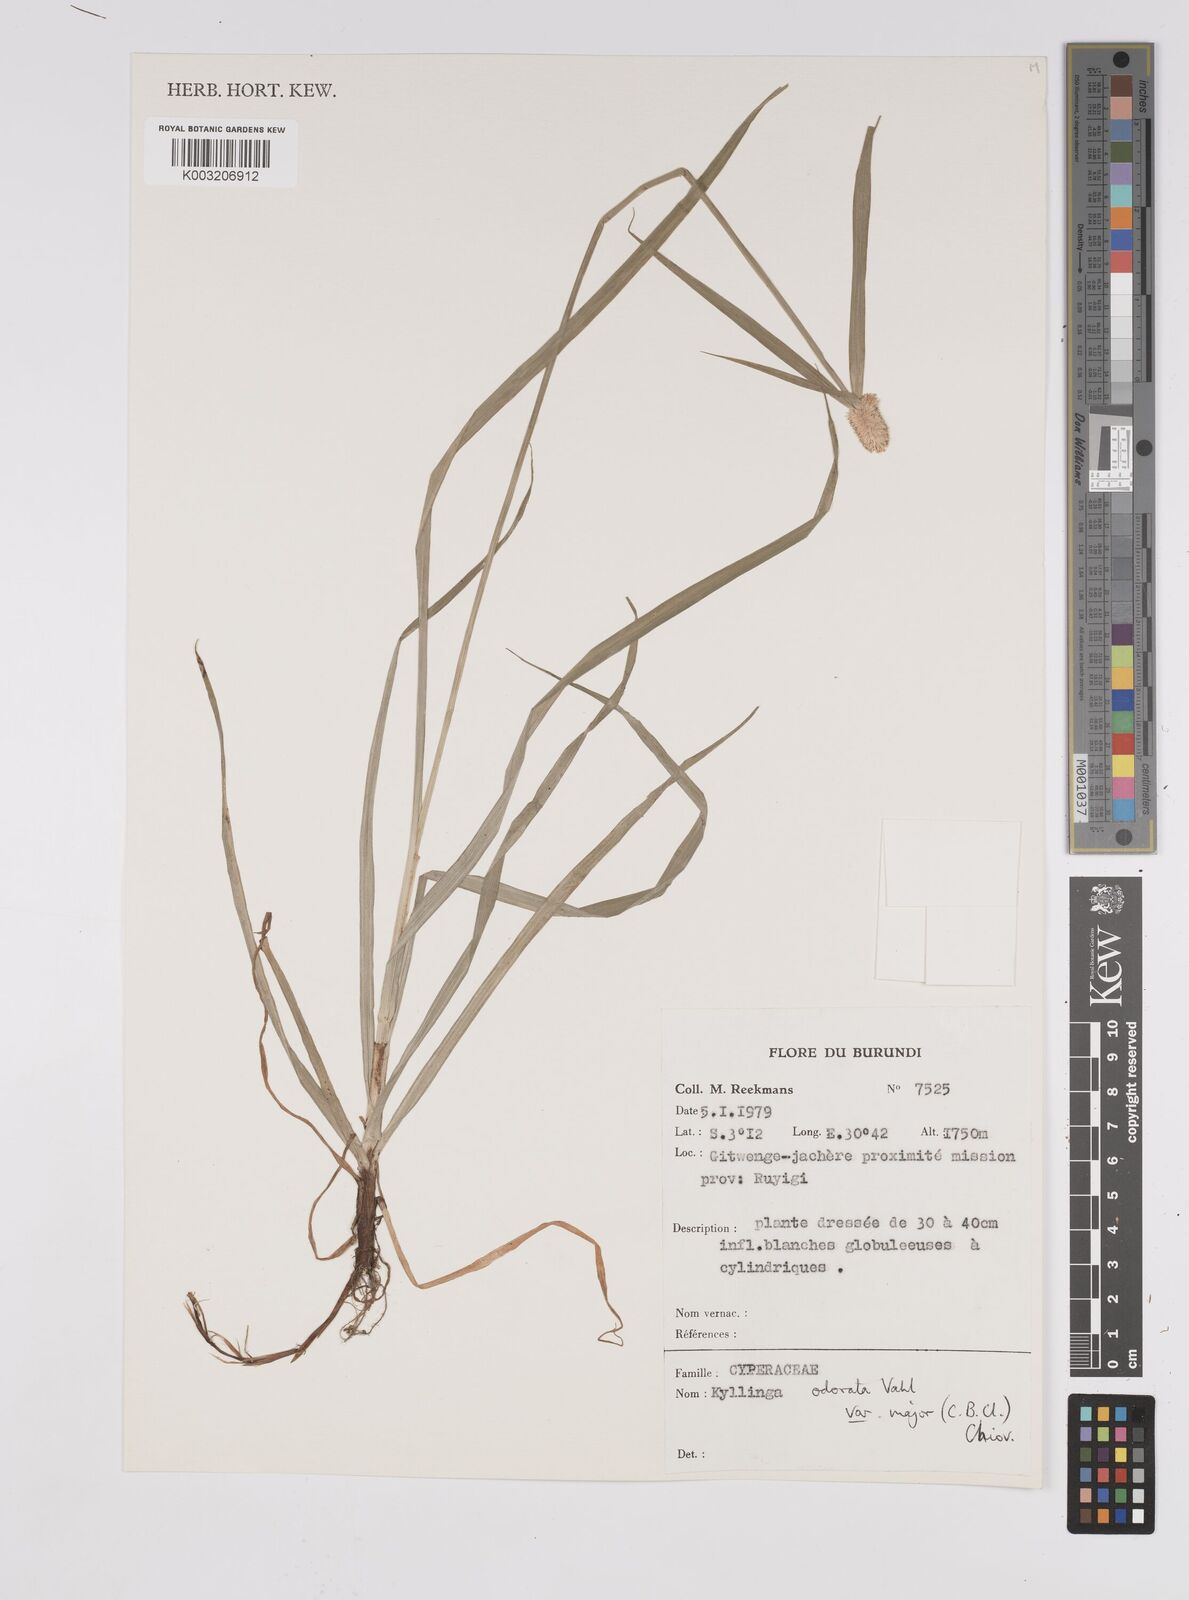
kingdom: Plantae
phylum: Tracheophyta
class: Liliopsida
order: Poales
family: Cyperaceae
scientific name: Cyperaceae
